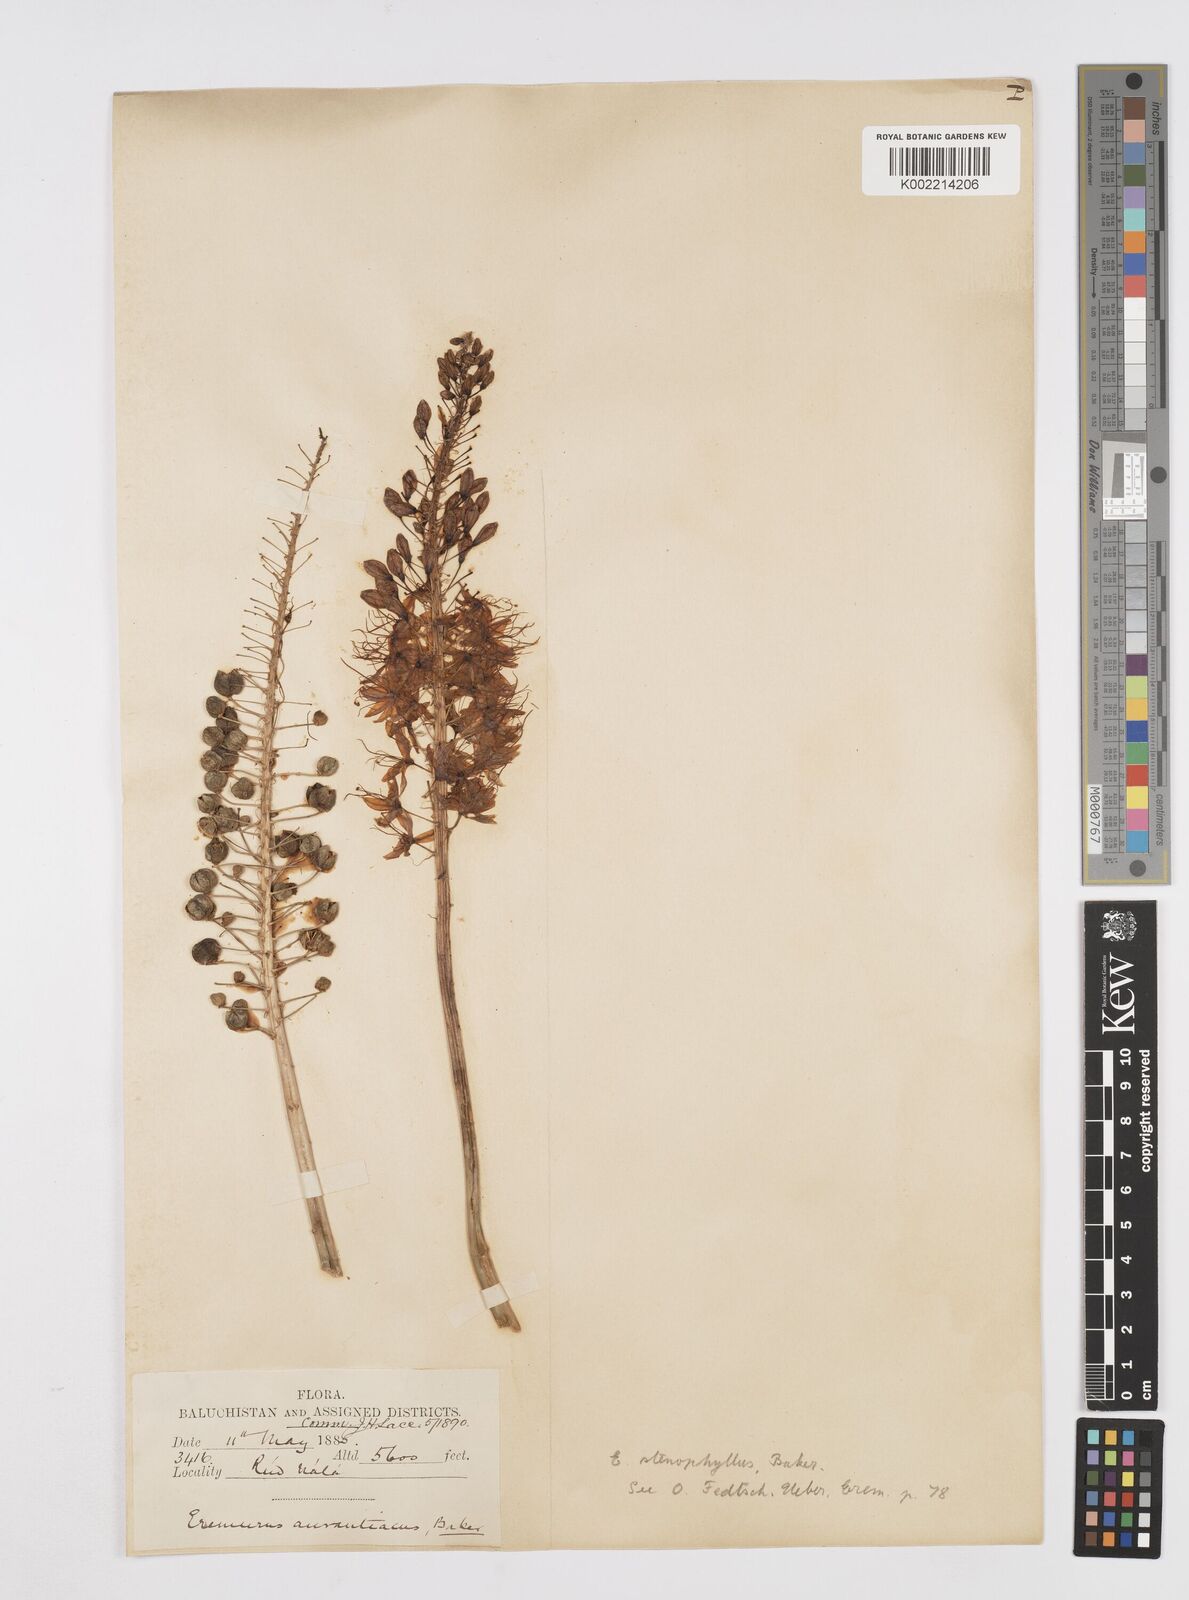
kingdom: Plantae
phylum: Tracheophyta
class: Liliopsida
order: Asparagales
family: Asphodelaceae
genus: Eremurus
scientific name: Eremurus stenophyllus
